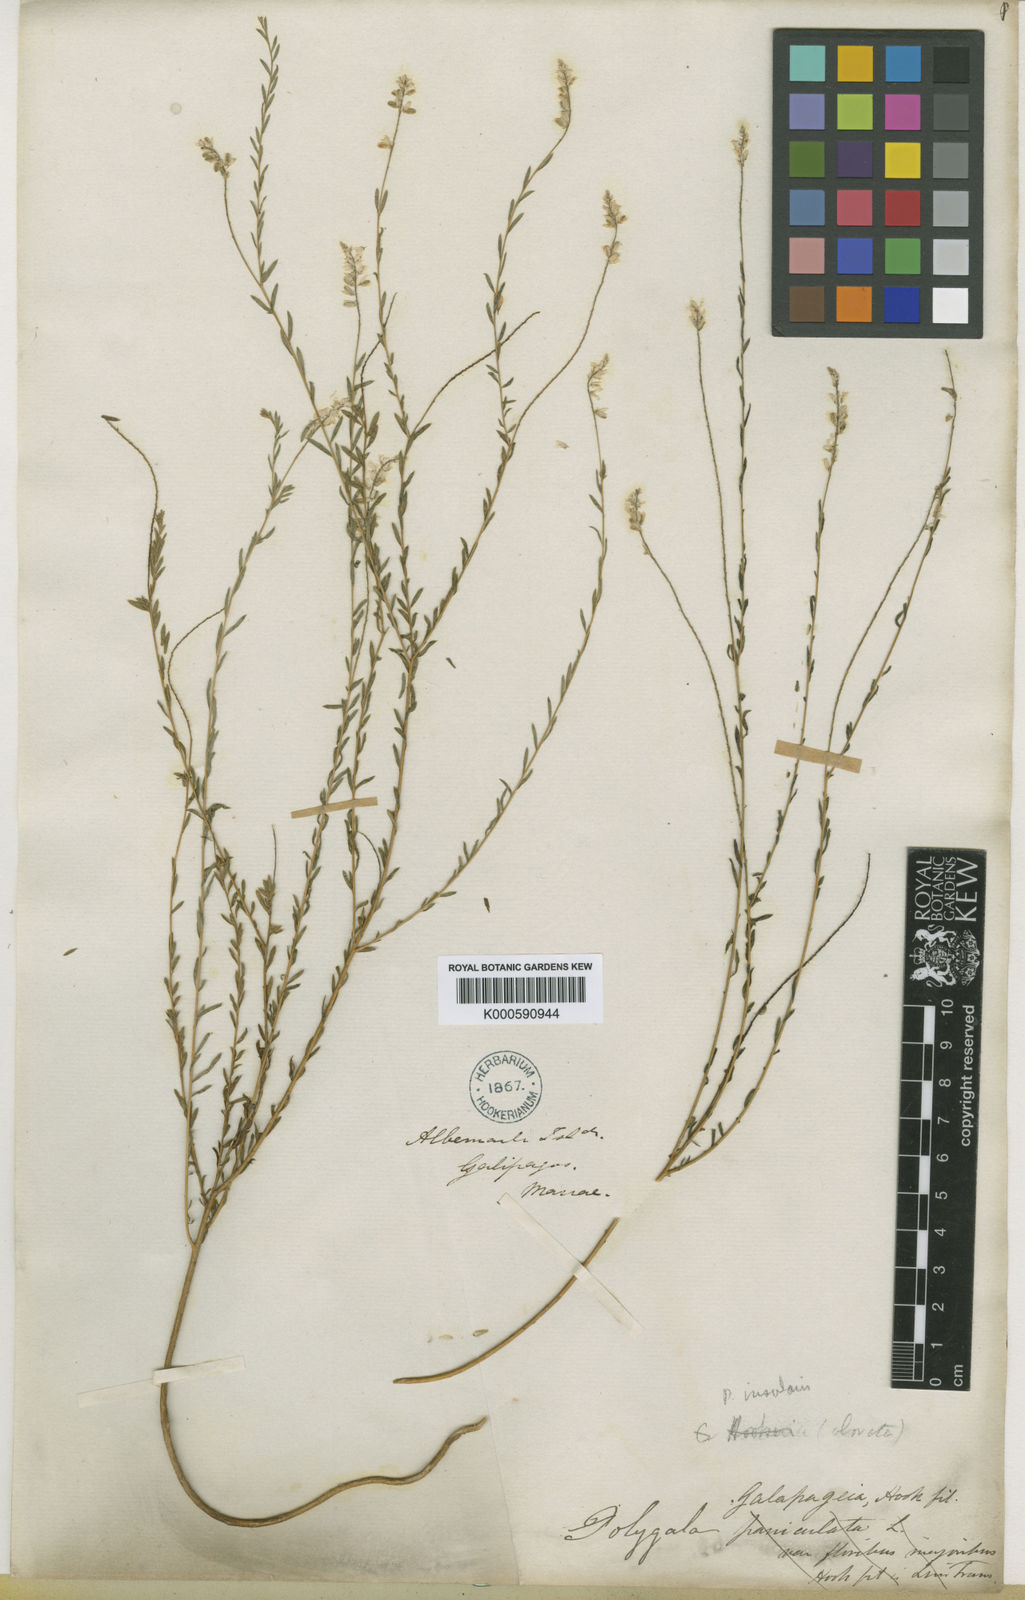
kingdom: Plantae
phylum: Tracheophyta
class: Magnoliopsida
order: Fabales
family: Polygalaceae
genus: Polygala
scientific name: Polygala galapageia
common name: Galapagos milkwort
